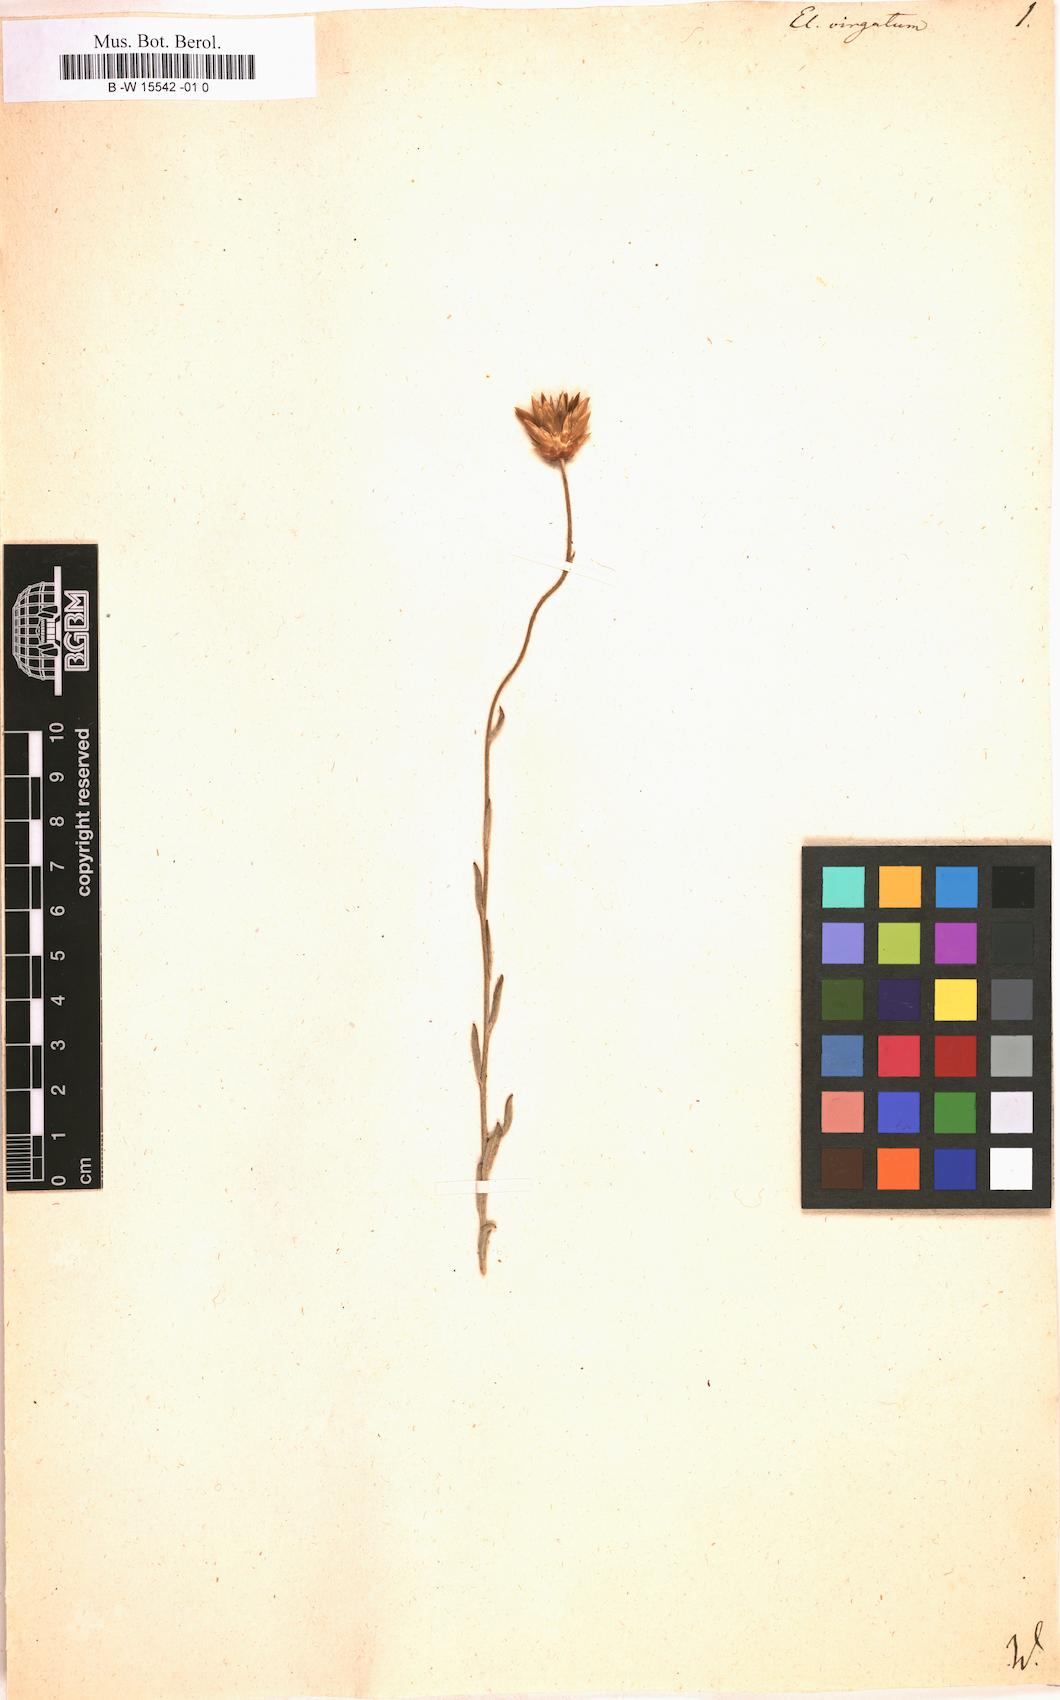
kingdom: Plantae
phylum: Tracheophyta
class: Magnoliopsida
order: Asterales
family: Asteraceae
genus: Helichrysum
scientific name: Helichrysum
